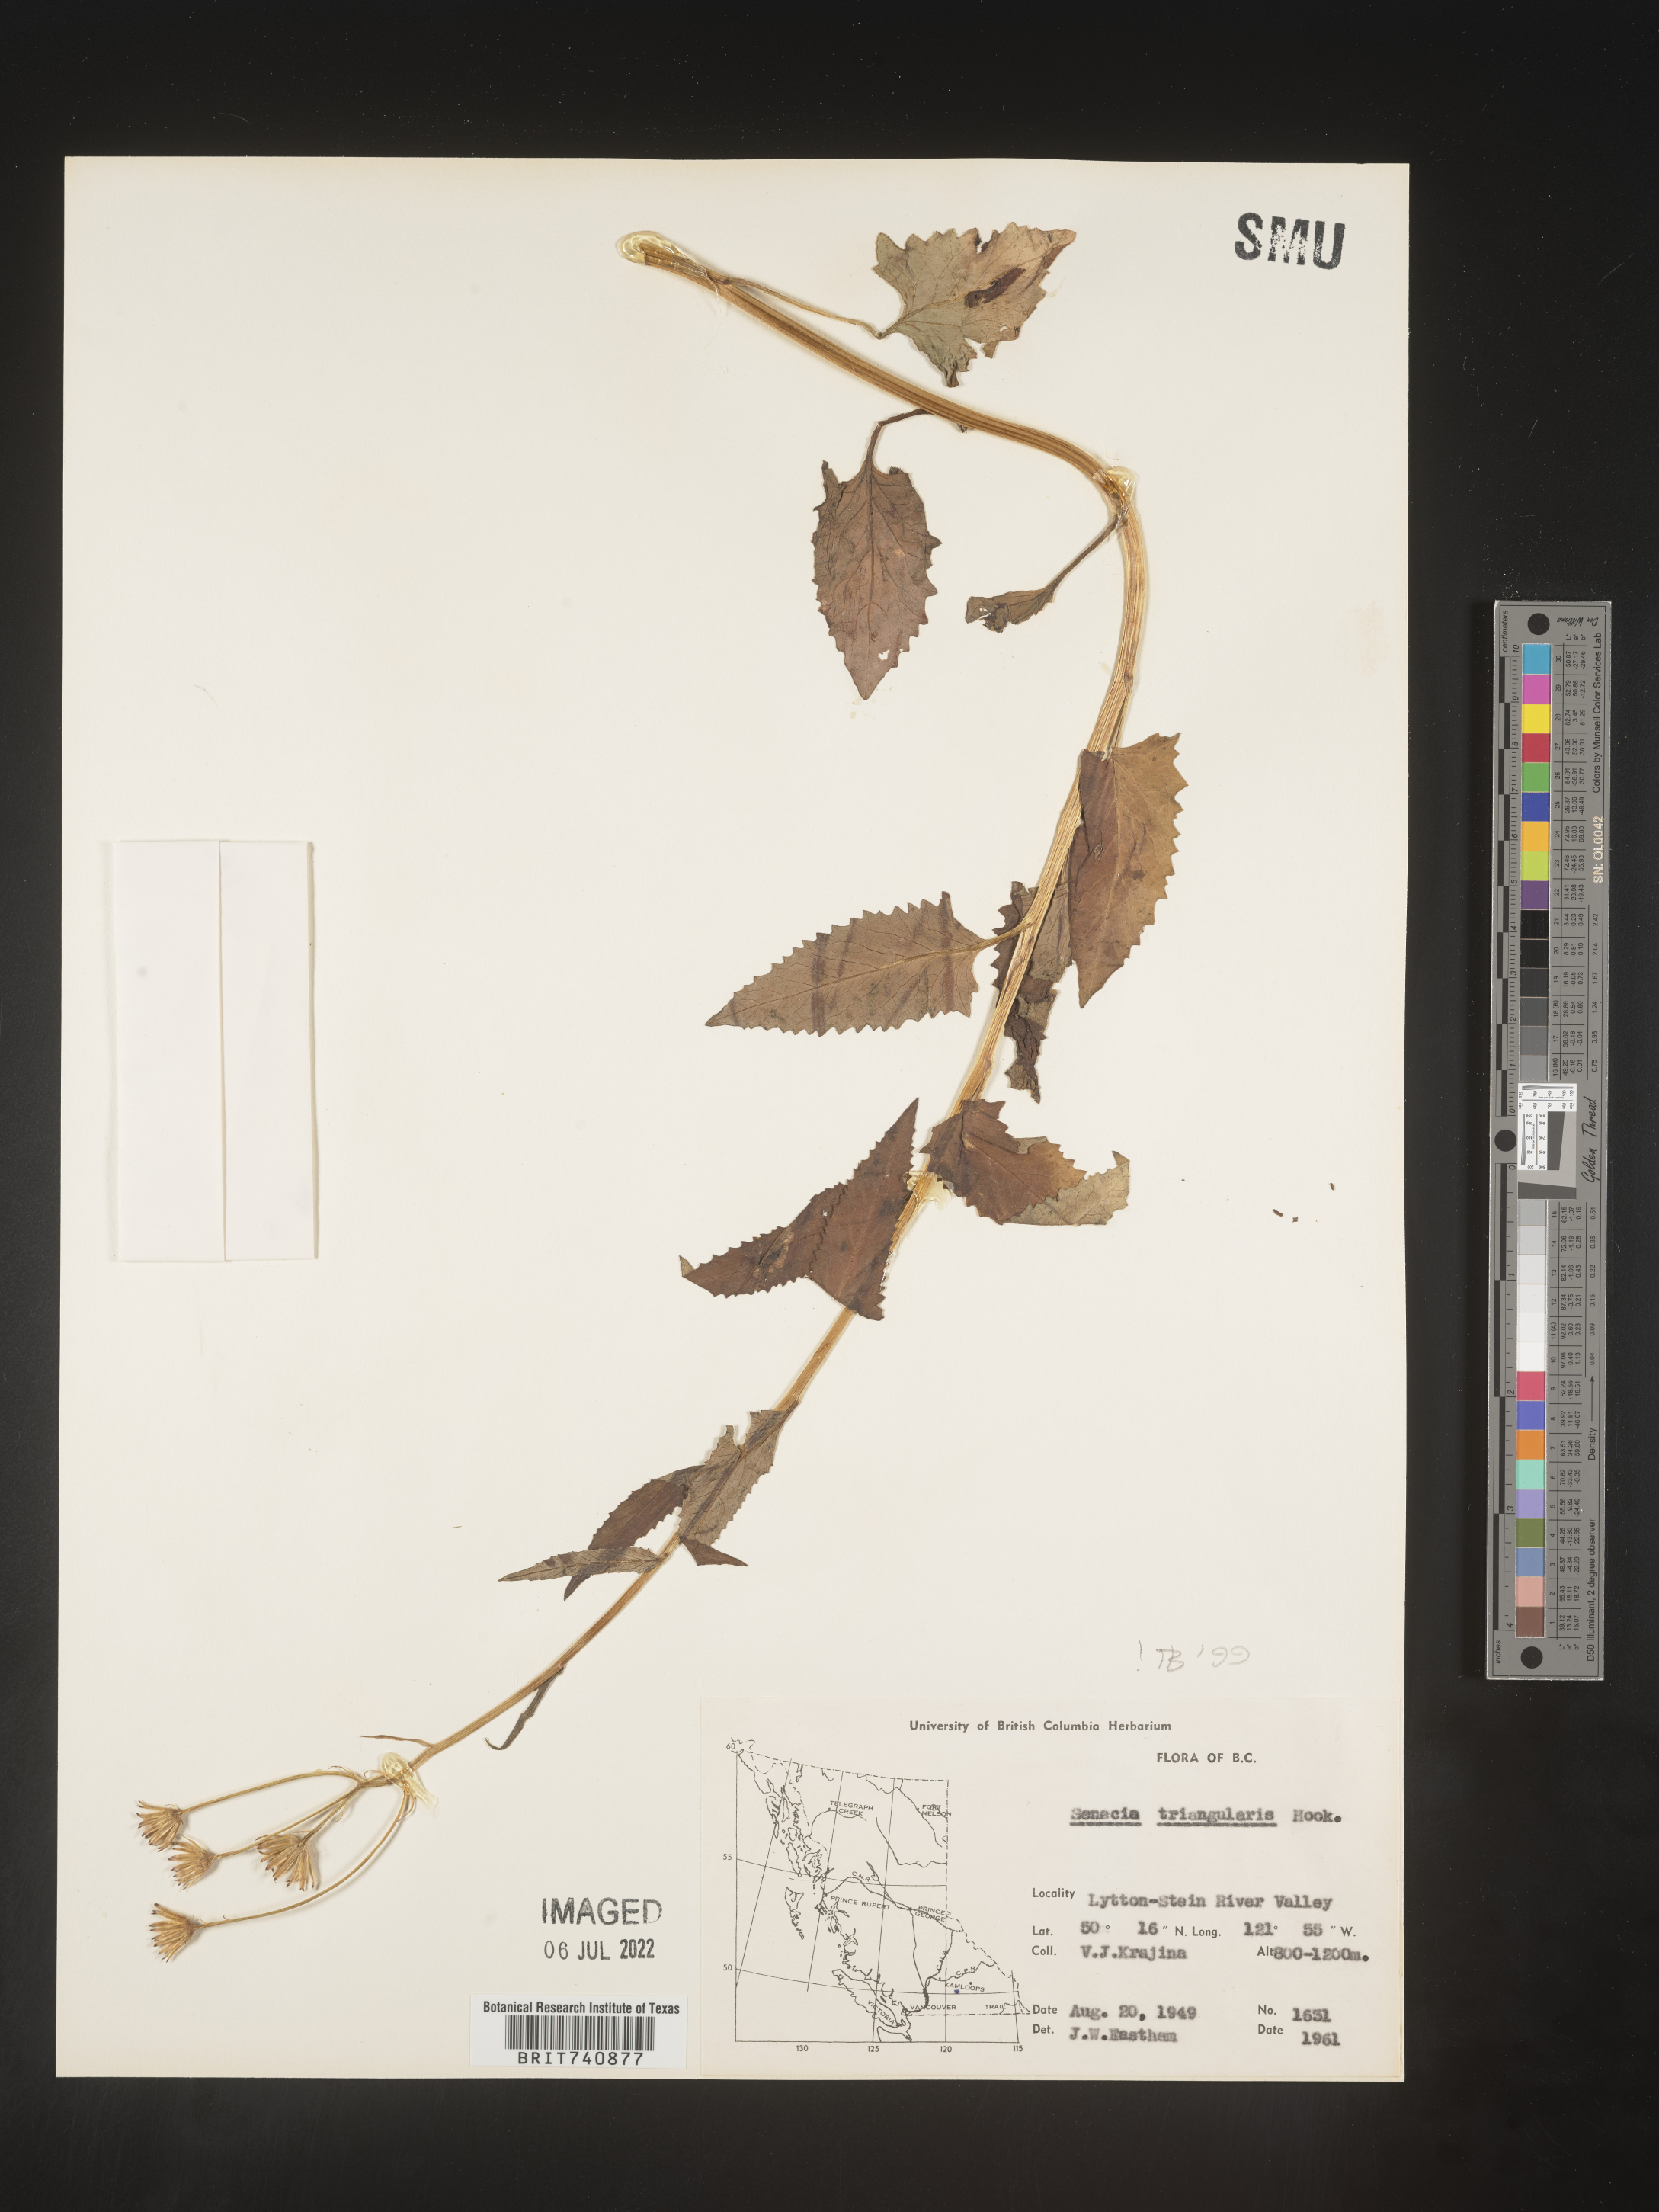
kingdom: Plantae
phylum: Tracheophyta
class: Magnoliopsida
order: Asterales
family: Asteraceae
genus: Senecio
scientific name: Senecio triangularis
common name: Arrowleaf butterweed
